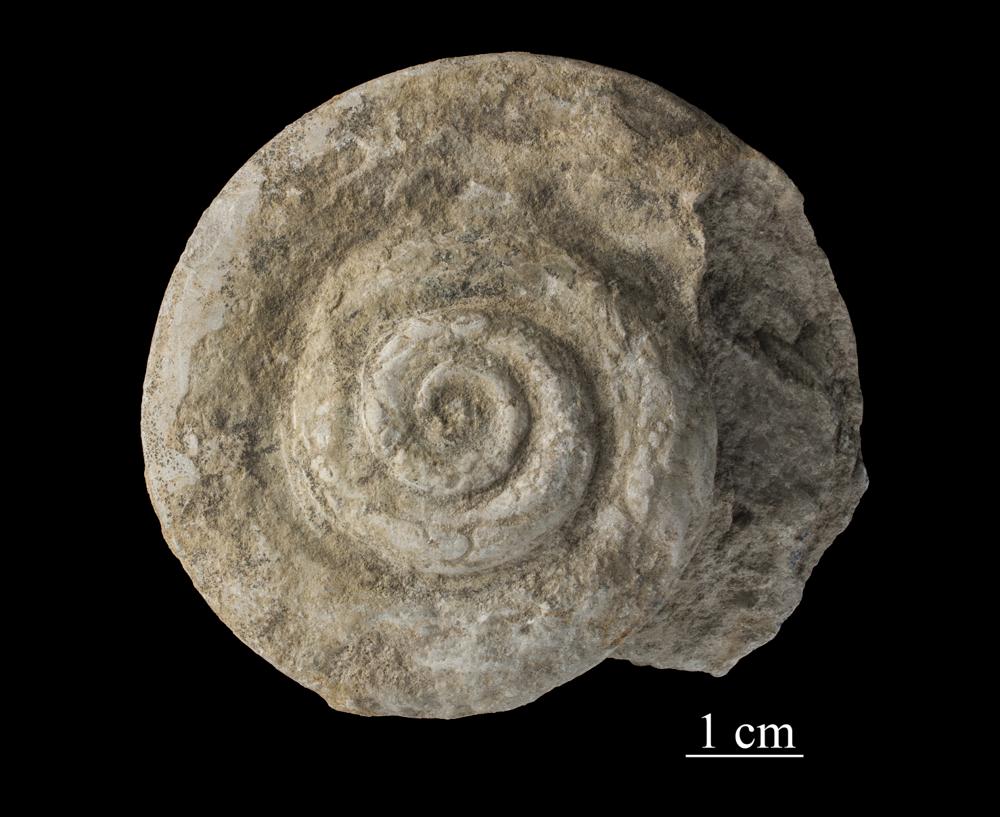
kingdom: Animalia
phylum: Mollusca
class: Gastropoda
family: Euomphalidae
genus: Euomphalus
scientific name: Euomphalus
